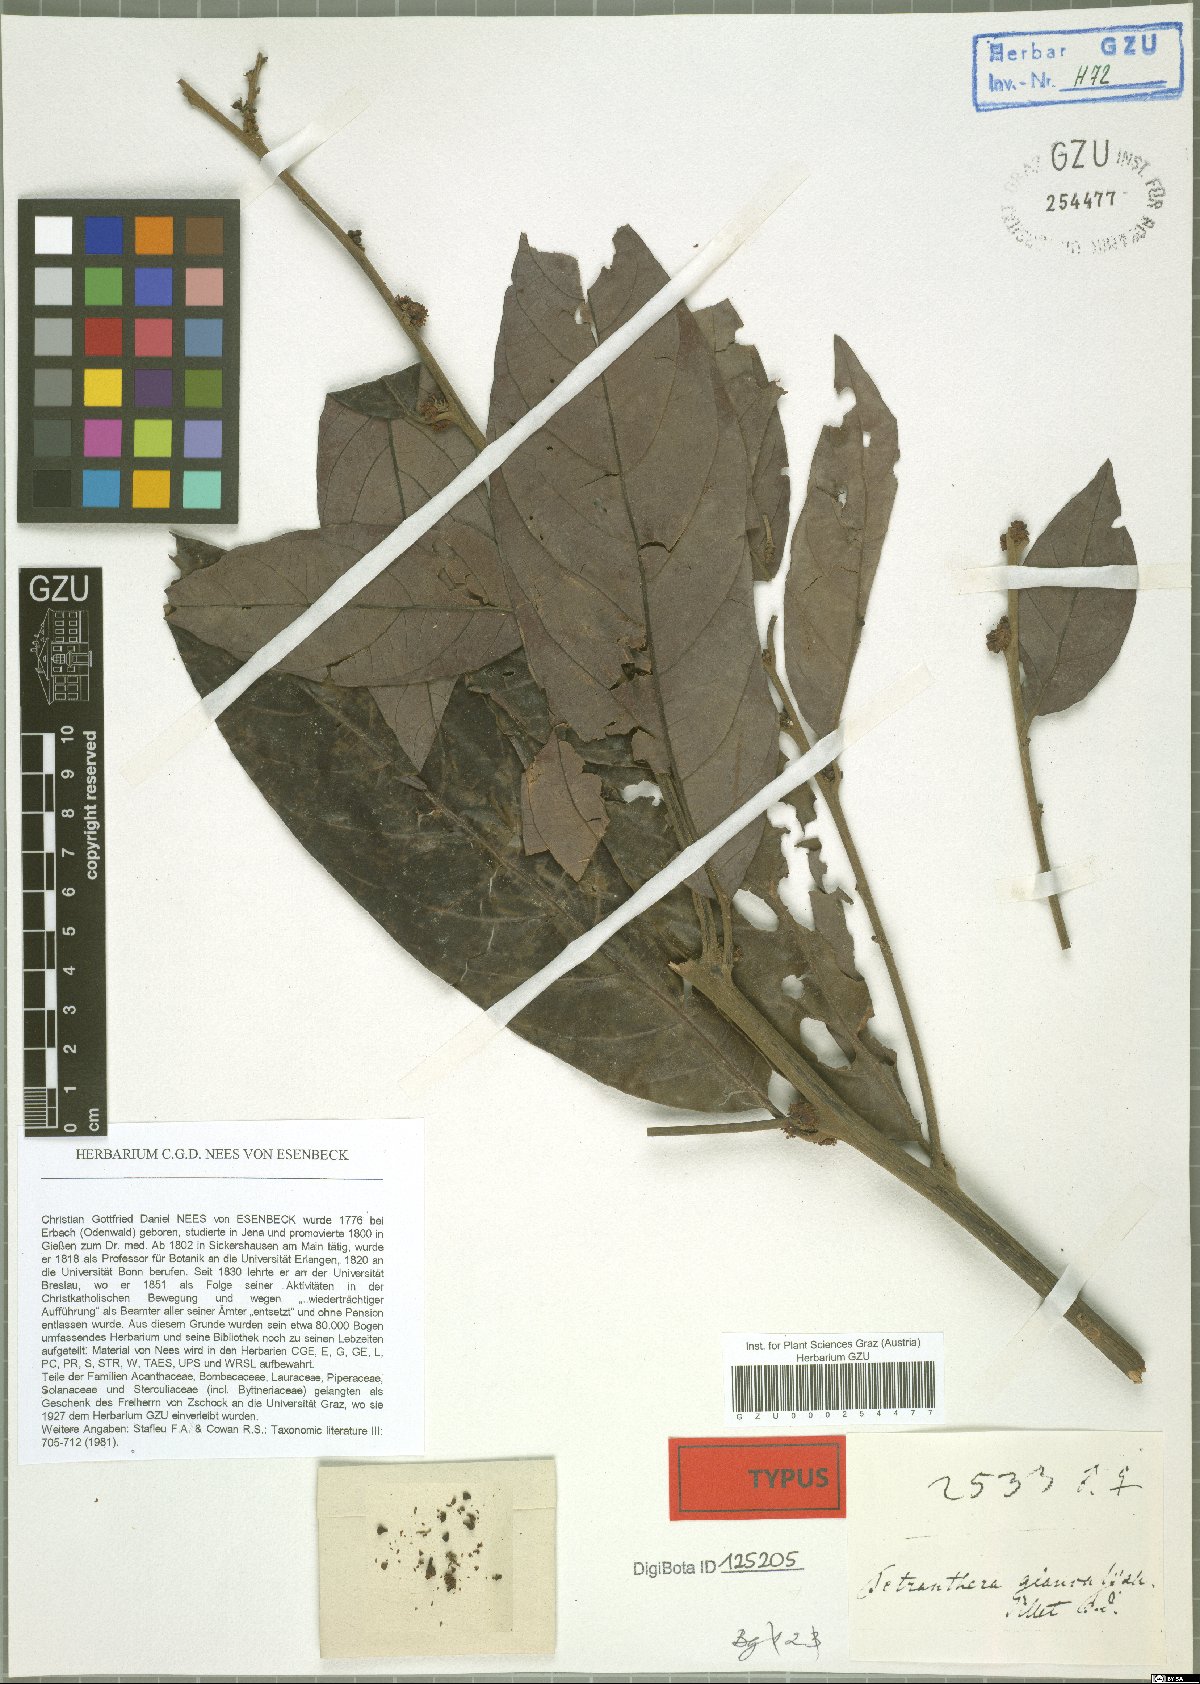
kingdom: Plantae
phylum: Tracheophyta
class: Magnoliopsida
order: Laurales
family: Lauraceae
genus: Litsea
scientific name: Litsea salicifolia
